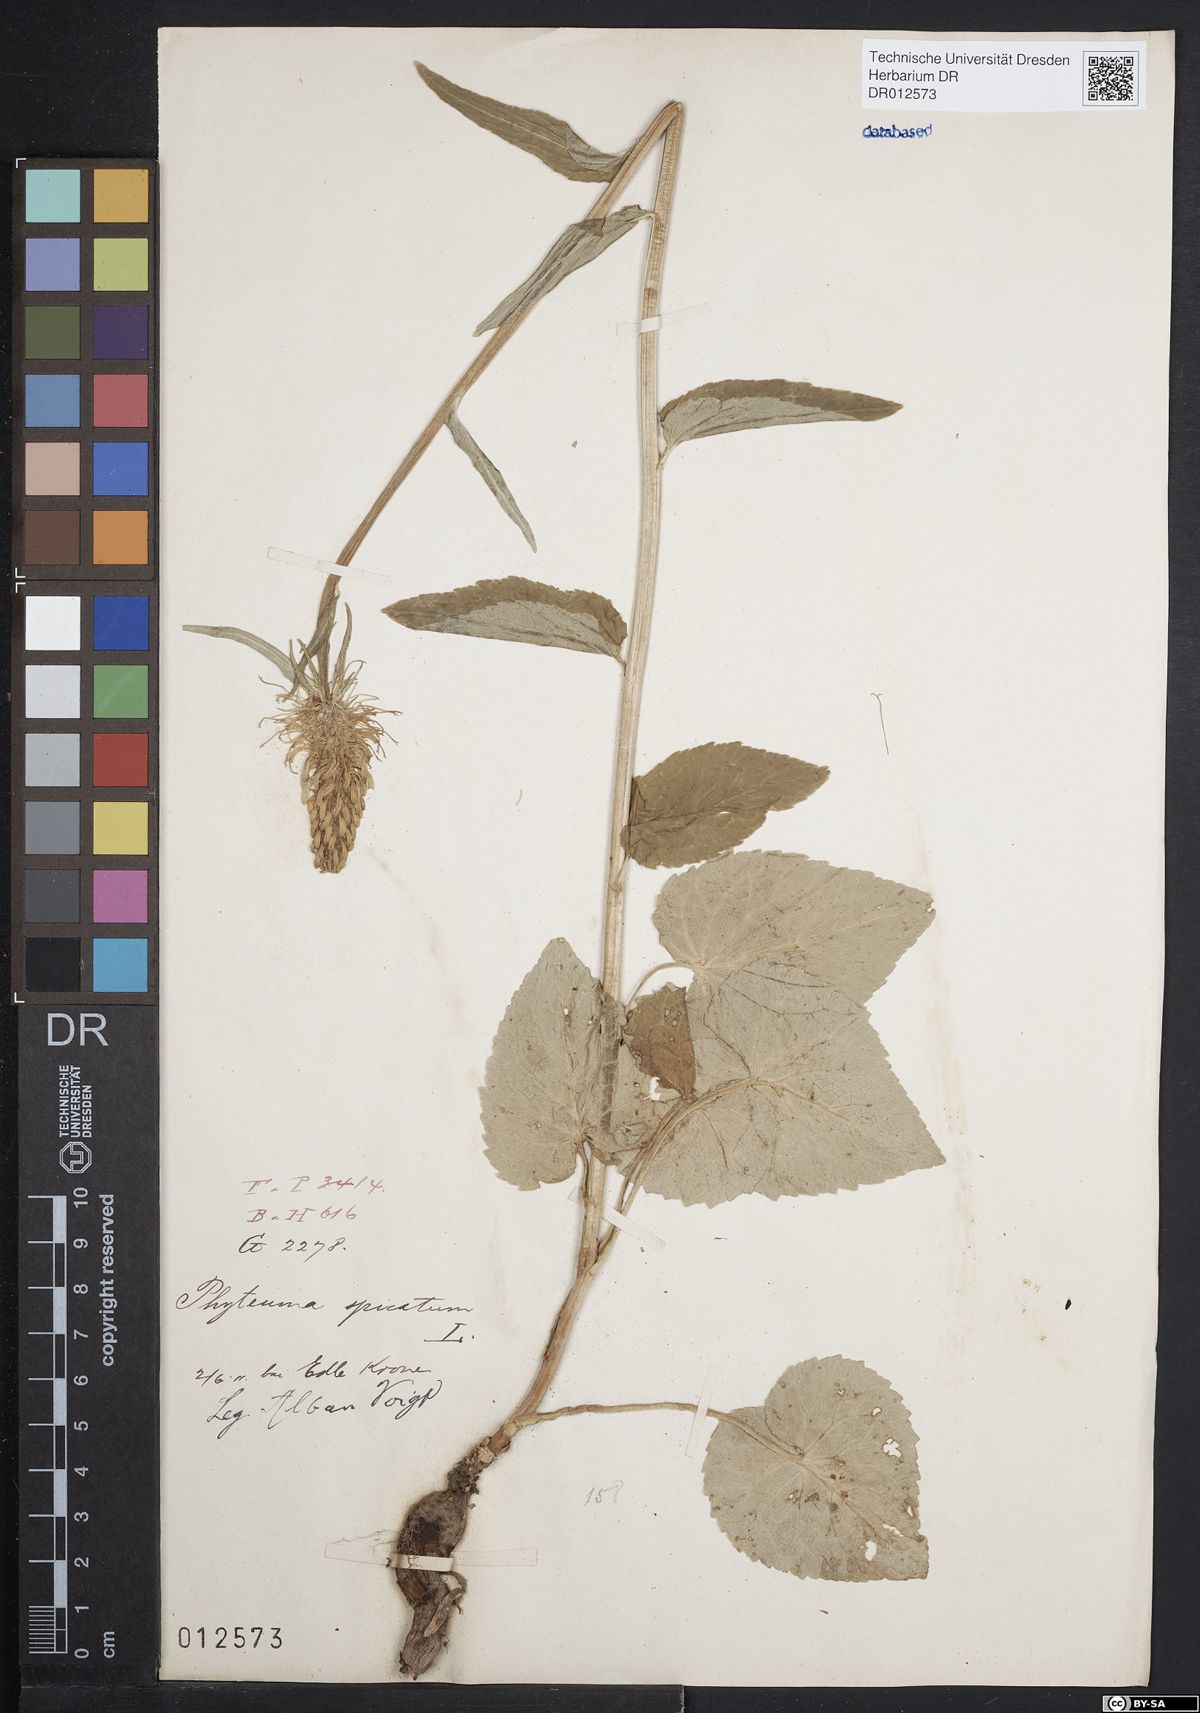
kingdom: Plantae
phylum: Tracheophyta
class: Magnoliopsida
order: Asterales
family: Campanulaceae
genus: Phyteuma
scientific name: Phyteuma spicatum
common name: Spiked rampion
